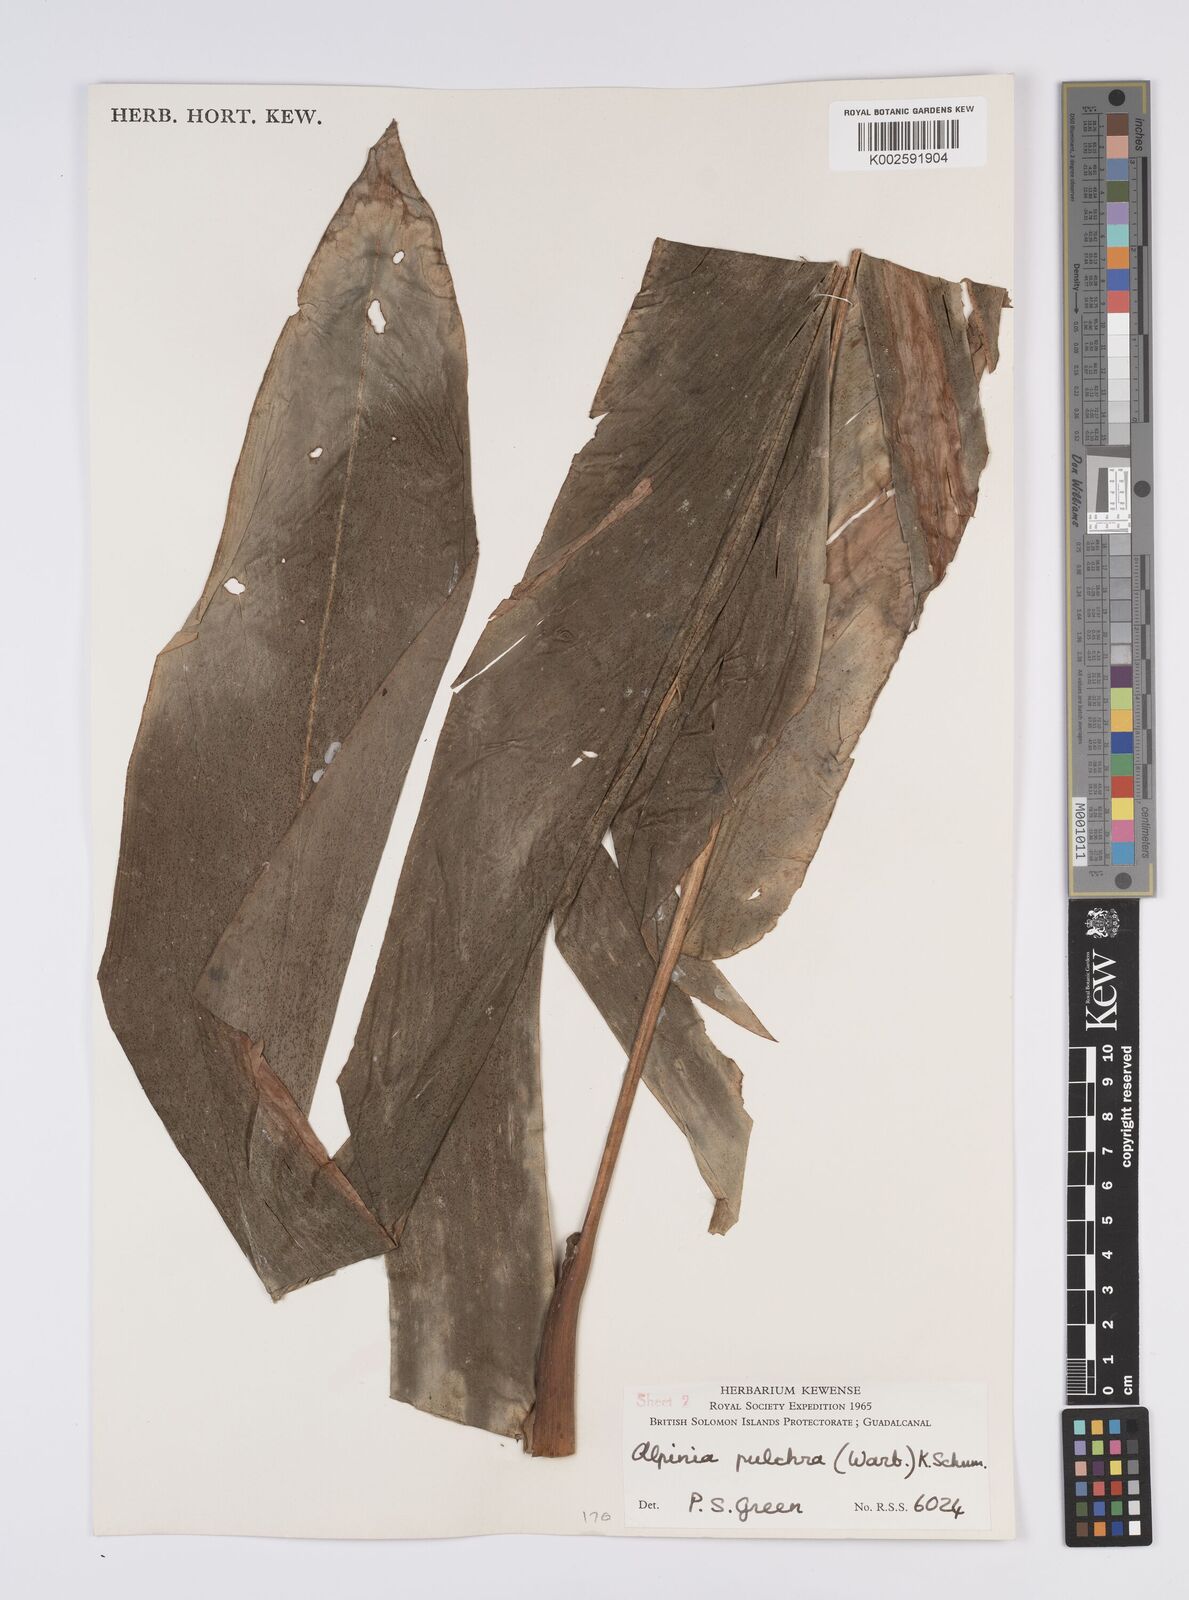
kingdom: Plantae
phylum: Tracheophyta
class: Liliopsida
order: Zingiberales
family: Zingiberaceae
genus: Alpinia
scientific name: Alpinia pulchra
